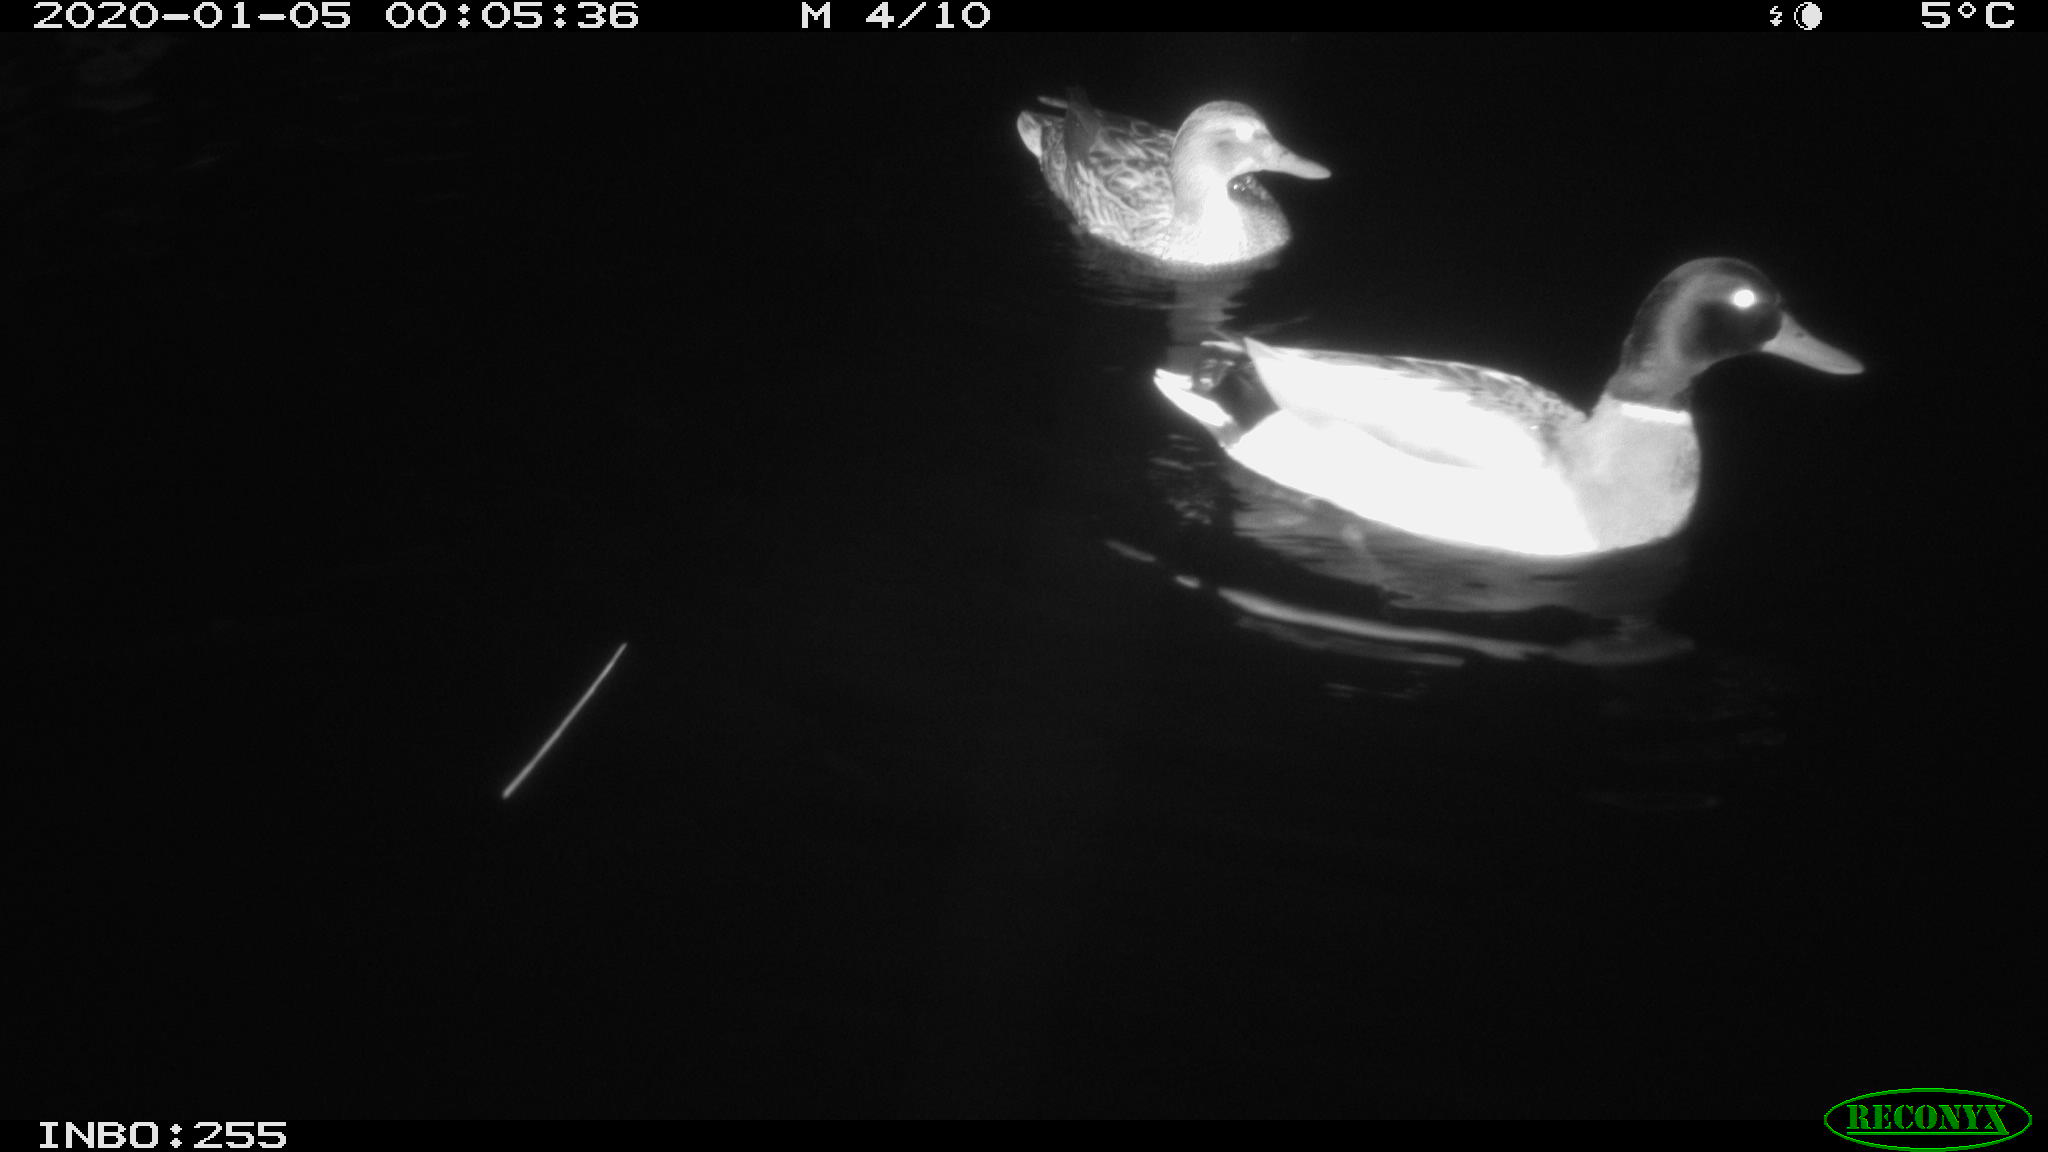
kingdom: Animalia
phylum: Chordata
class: Aves
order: Anseriformes
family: Anatidae
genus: Anas
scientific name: Anas platyrhynchos
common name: Mallard
